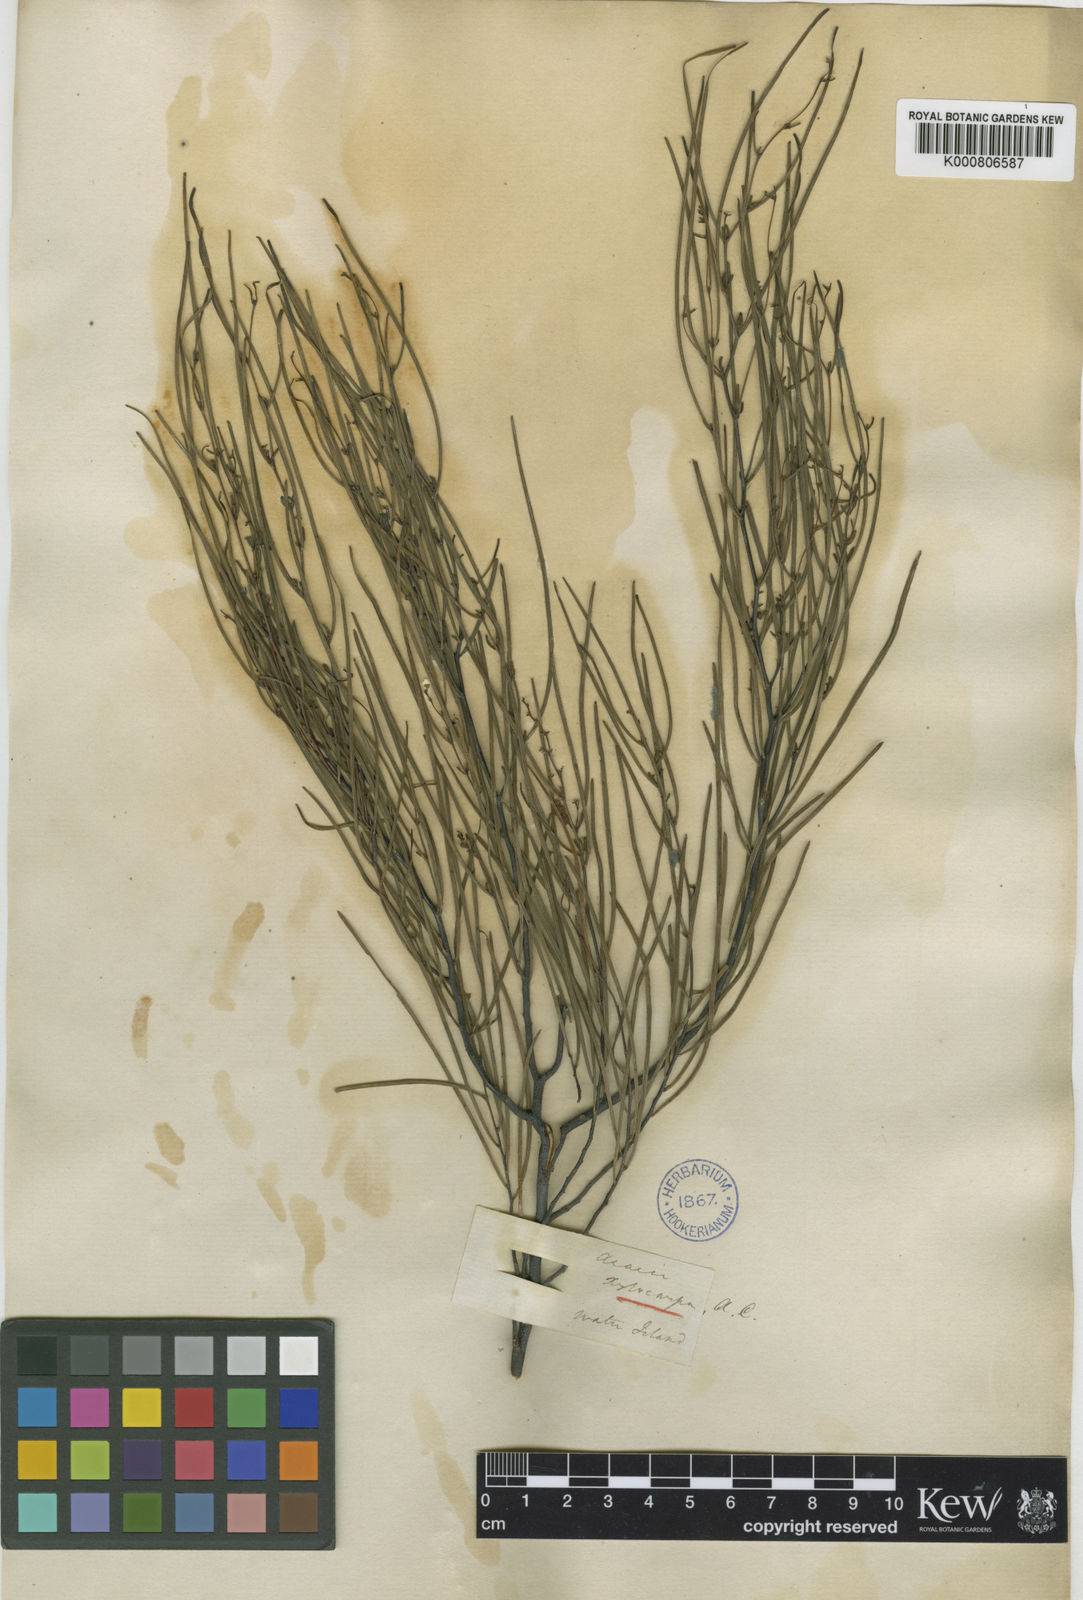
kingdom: Plantae
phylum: Tracheophyta
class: Magnoliopsida
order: Fabales
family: Fabaceae
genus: Acacia
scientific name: Acacia
